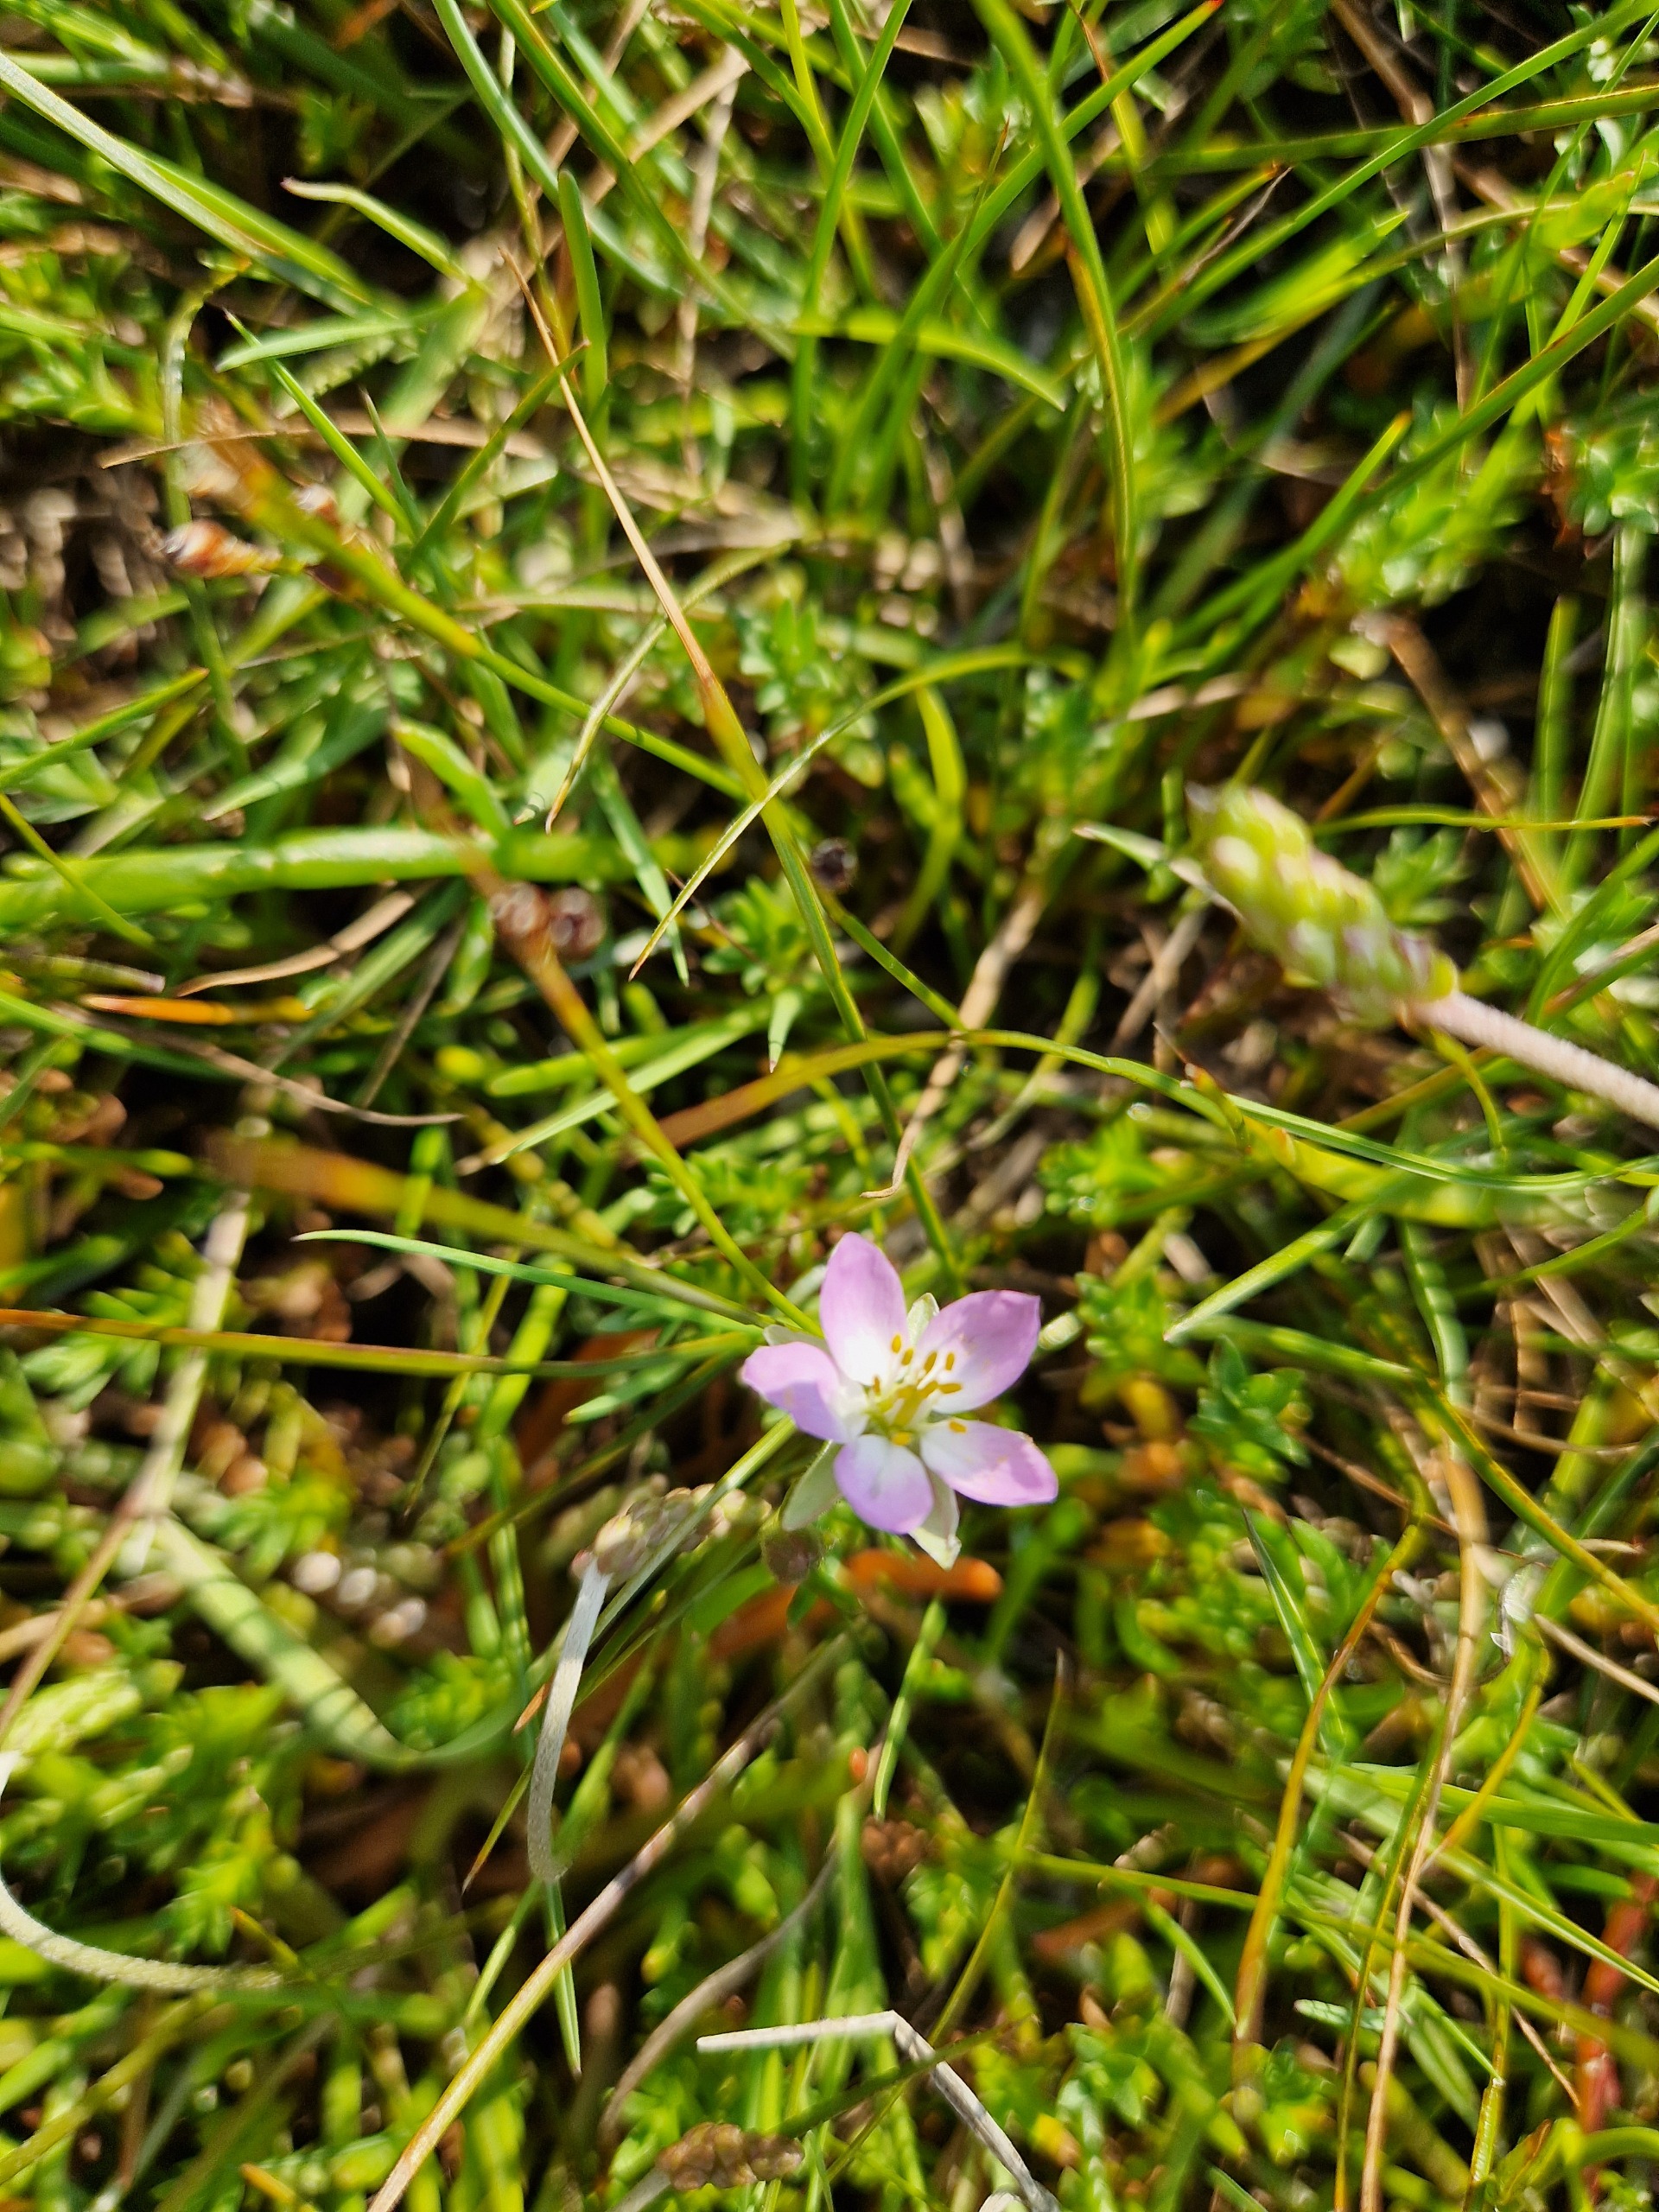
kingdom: Plantae
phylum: Tracheophyta
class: Magnoliopsida
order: Caryophyllales
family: Caryophyllaceae
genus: Spergularia
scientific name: Spergularia media
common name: Vingefrøet hindeknæ
